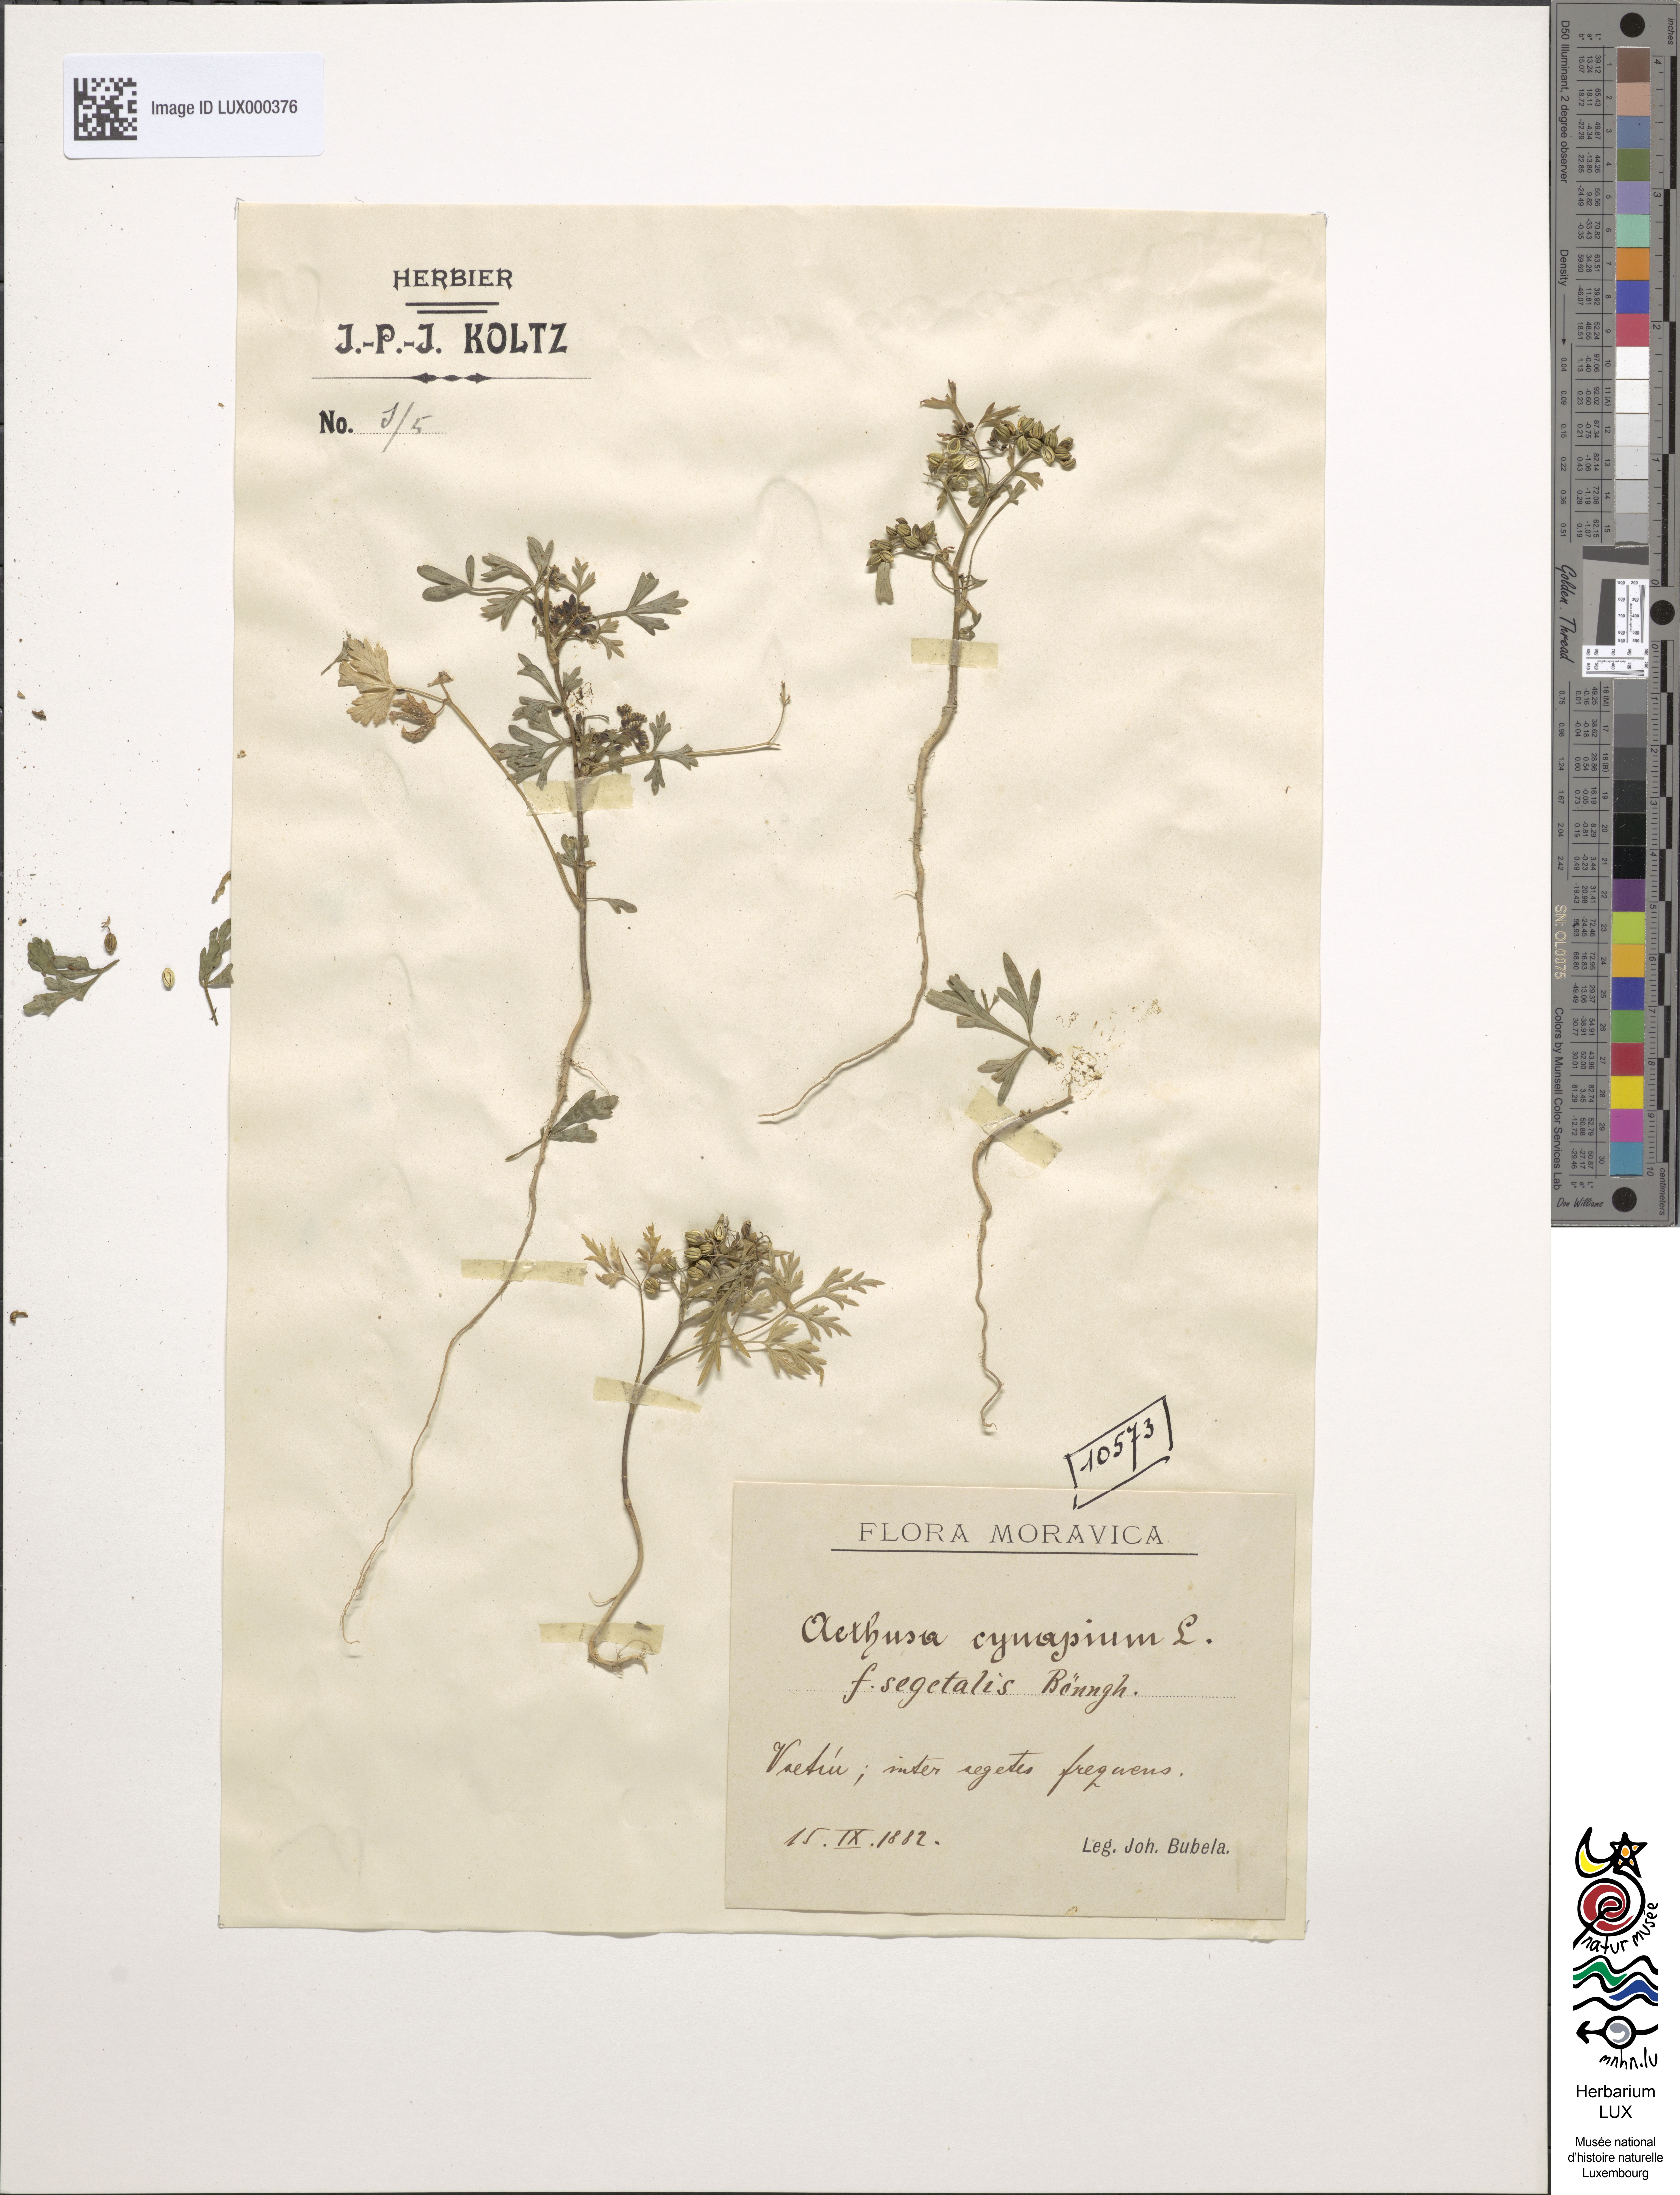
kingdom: Plantae
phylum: Tracheophyta
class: Magnoliopsida
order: Apiales
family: Apiaceae
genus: Aethusa
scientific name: Aethusa cynapium
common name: Fool's parsley
